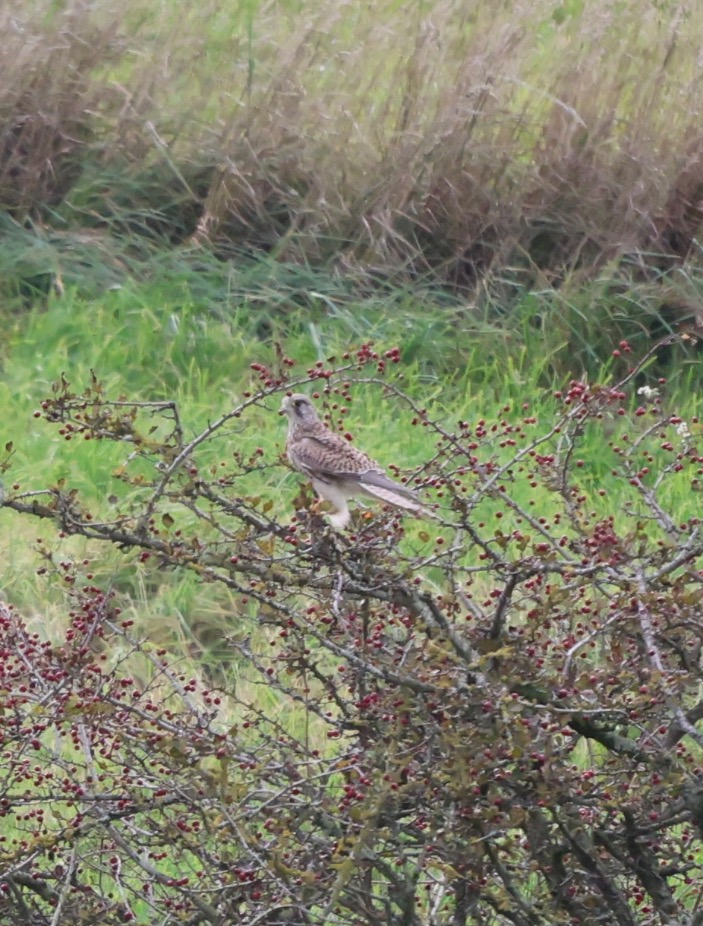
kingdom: Animalia
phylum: Chordata
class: Aves
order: Falconiformes
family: Falconidae
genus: Falco
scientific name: Falco tinnunculus
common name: Tårnfalk
